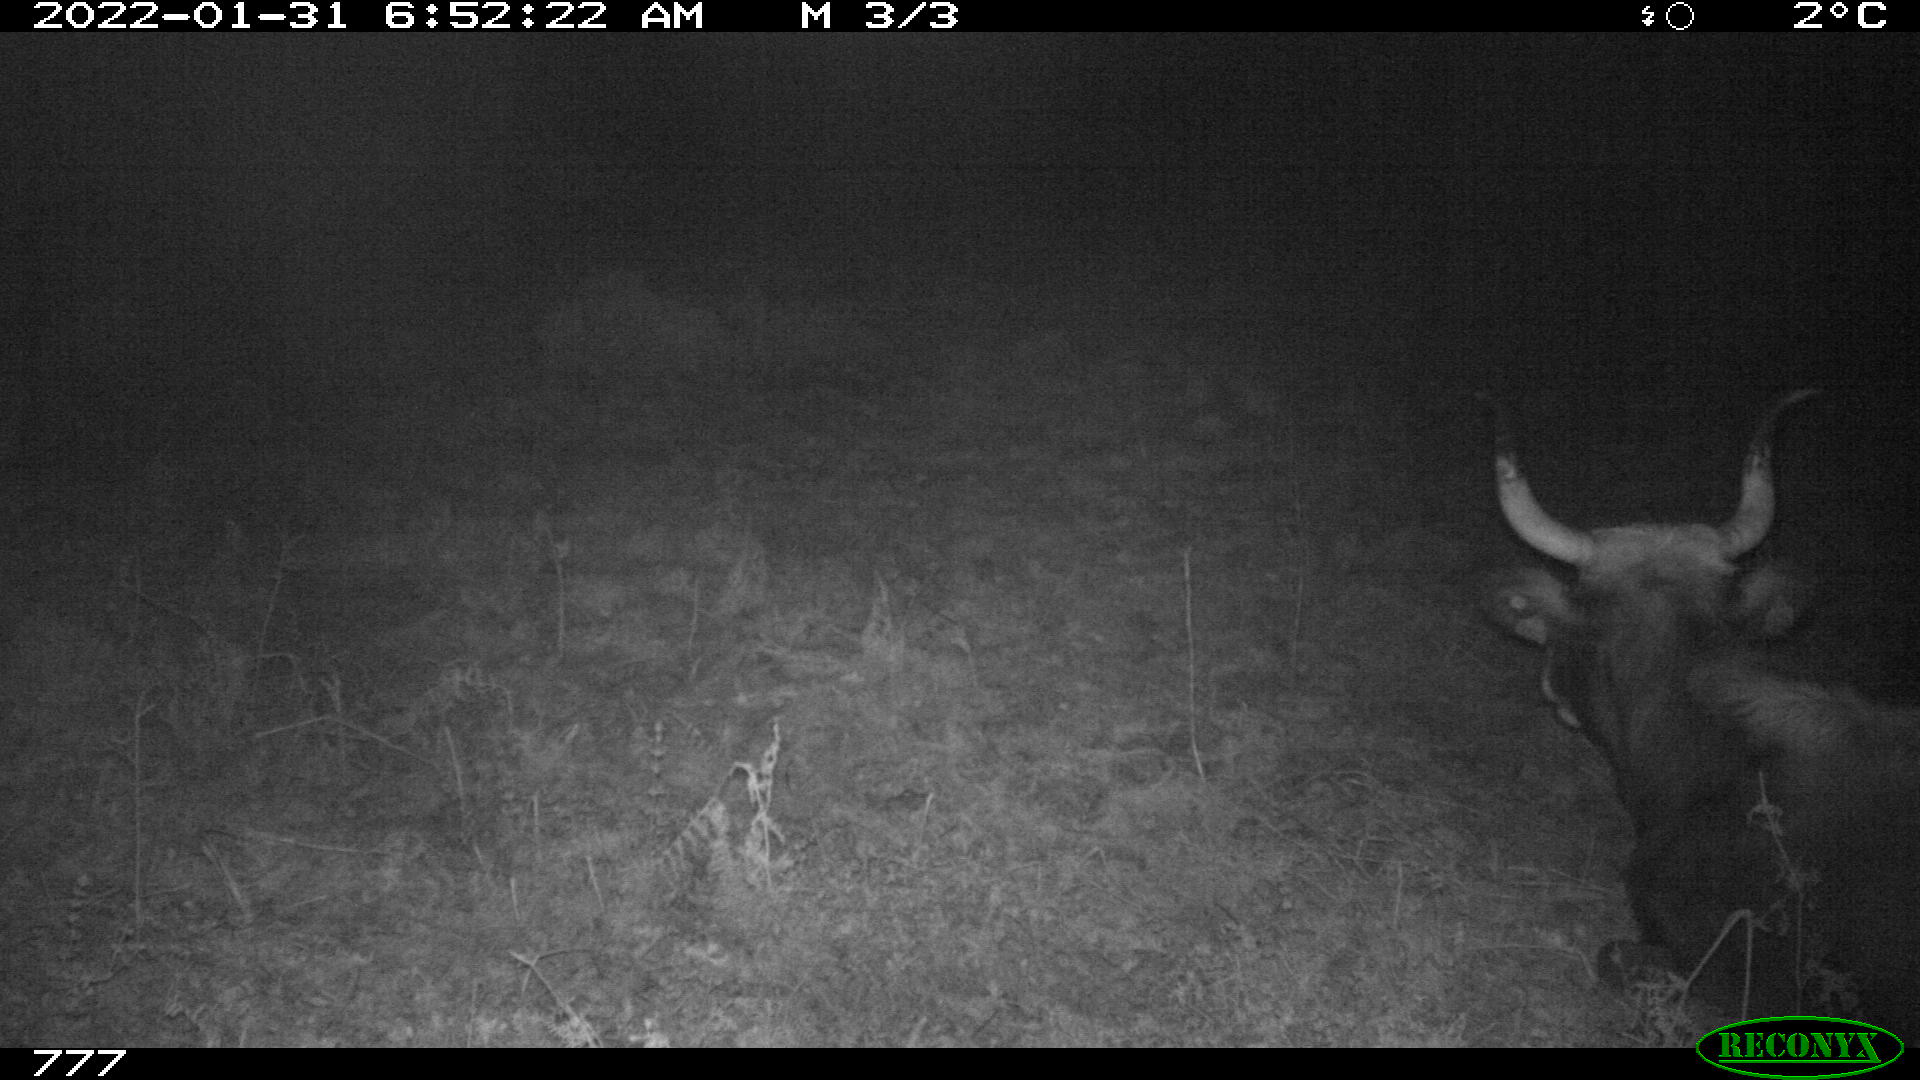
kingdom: Animalia
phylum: Chordata
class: Mammalia
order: Artiodactyla
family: Bovidae
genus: Bos
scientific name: Bos taurus
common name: Domesticated cattle
